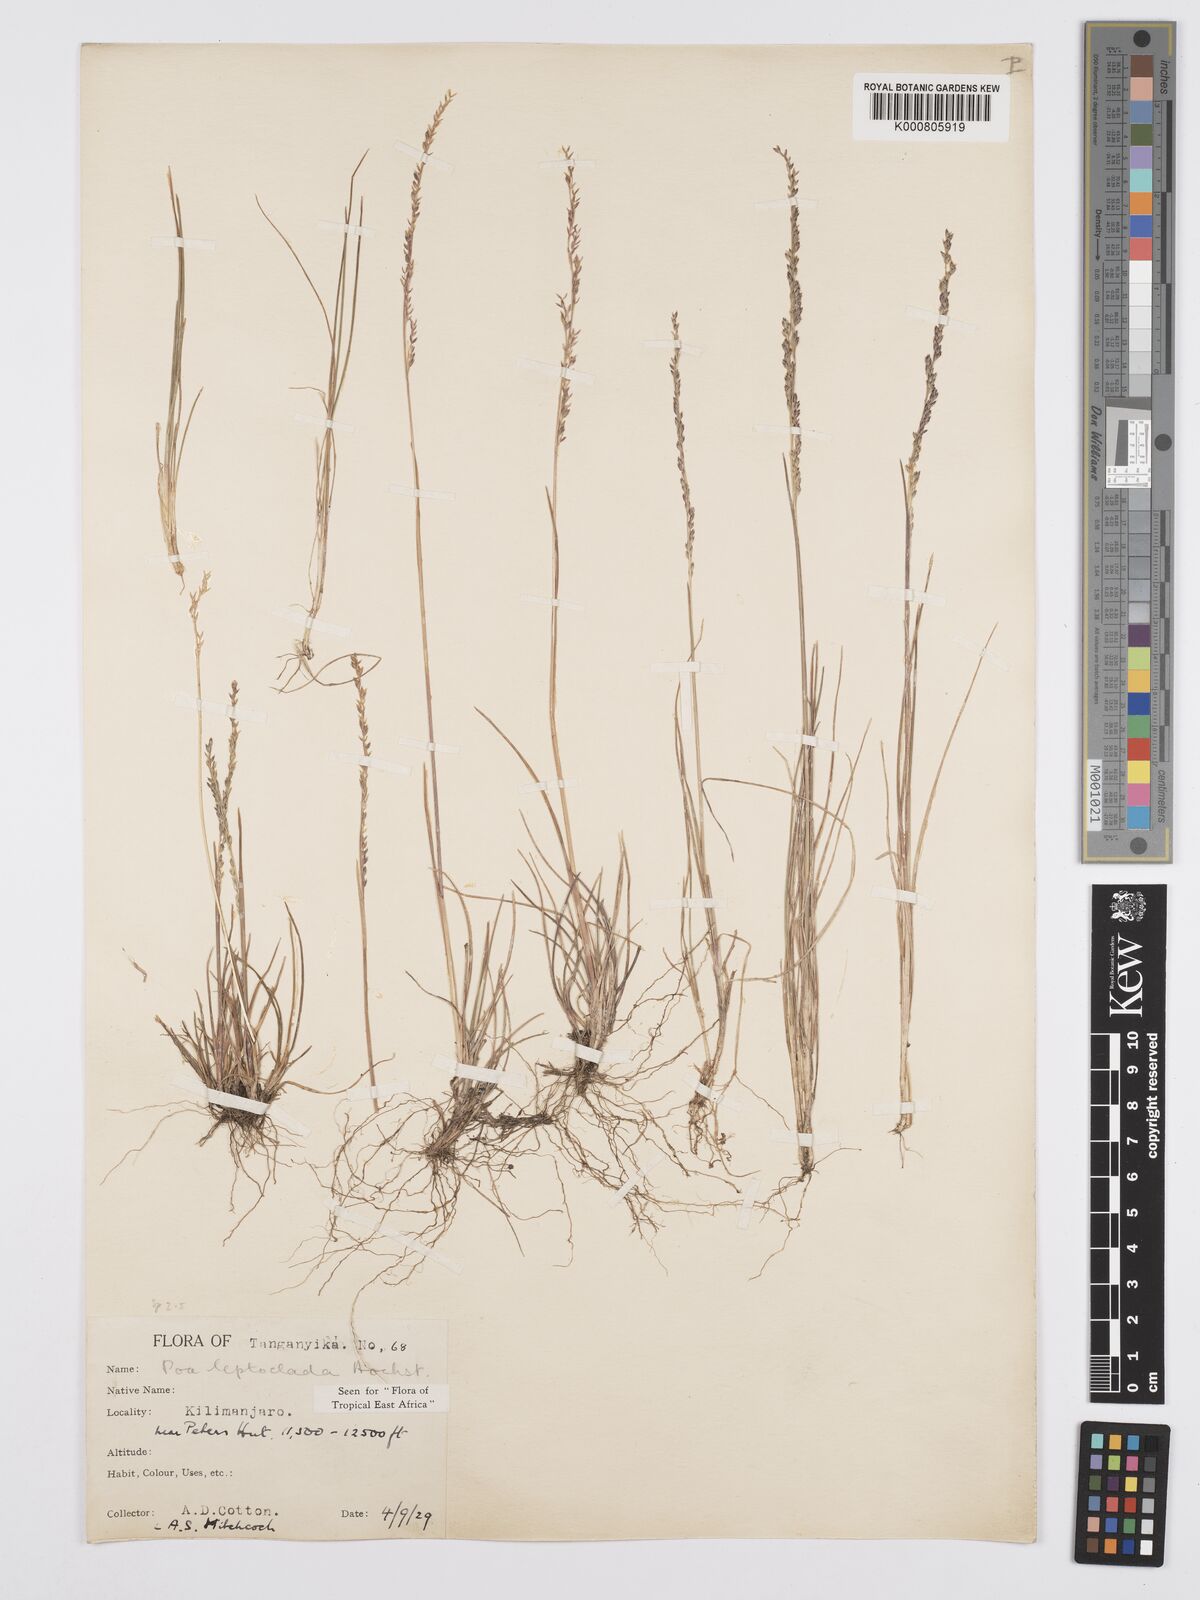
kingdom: Plantae
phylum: Tracheophyta
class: Liliopsida
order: Poales
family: Poaceae
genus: Poa
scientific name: Poa leptoclada
